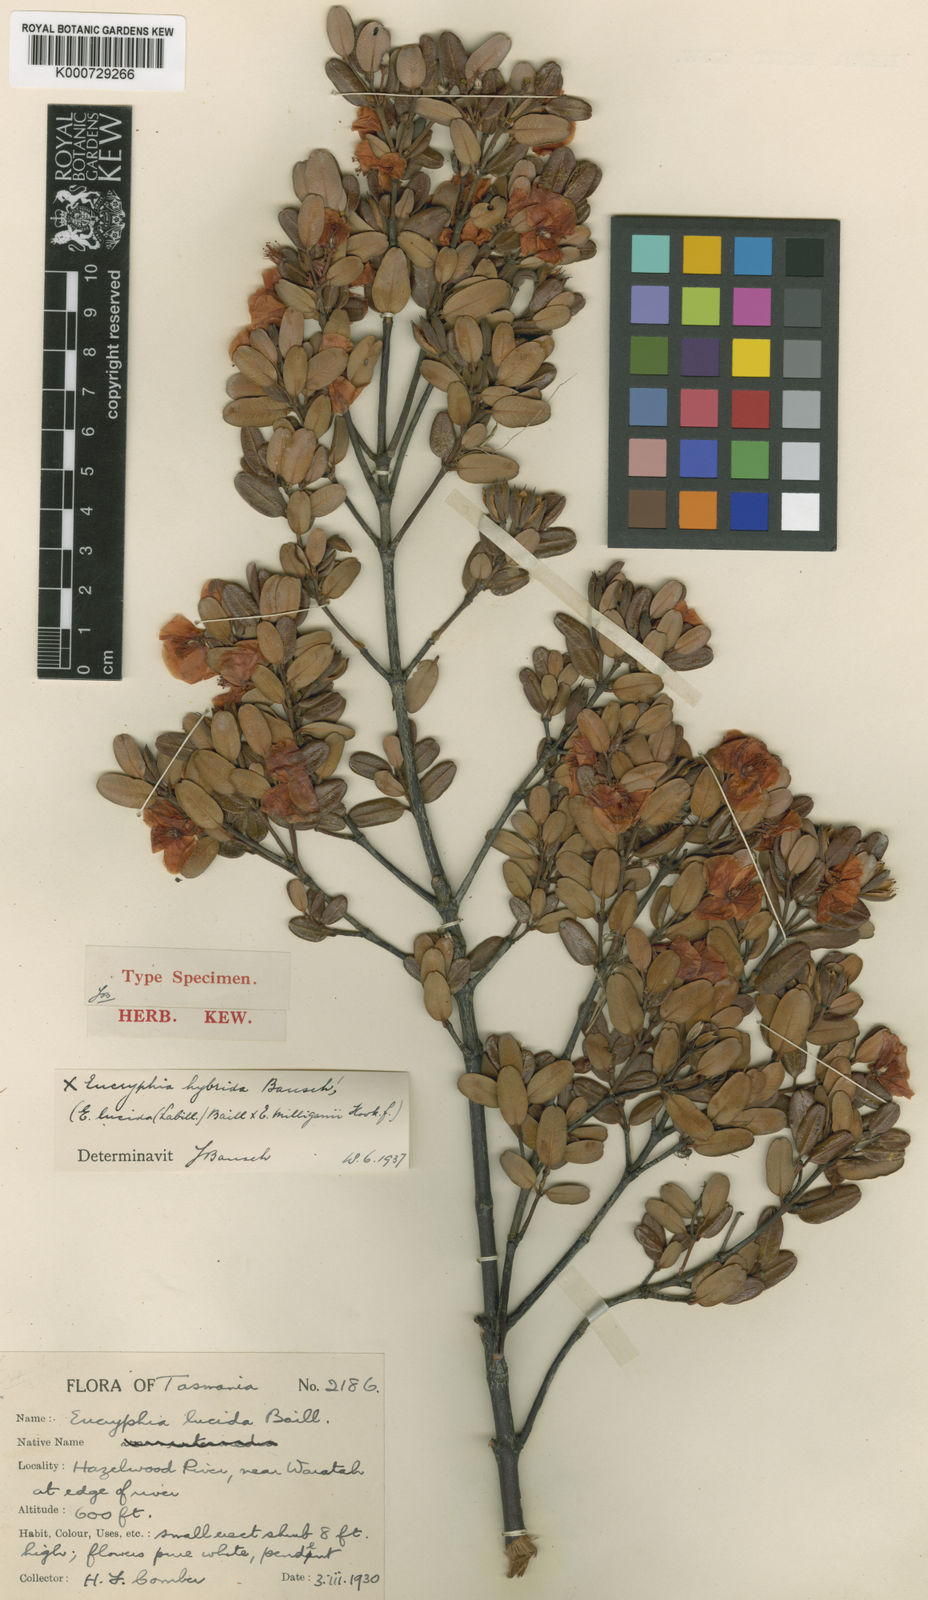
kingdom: Plantae
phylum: Tracheophyta
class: Magnoliopsida
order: Oxalidales
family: Cunoniaceae
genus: Eucryphia
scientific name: Eucryphia hybrida
